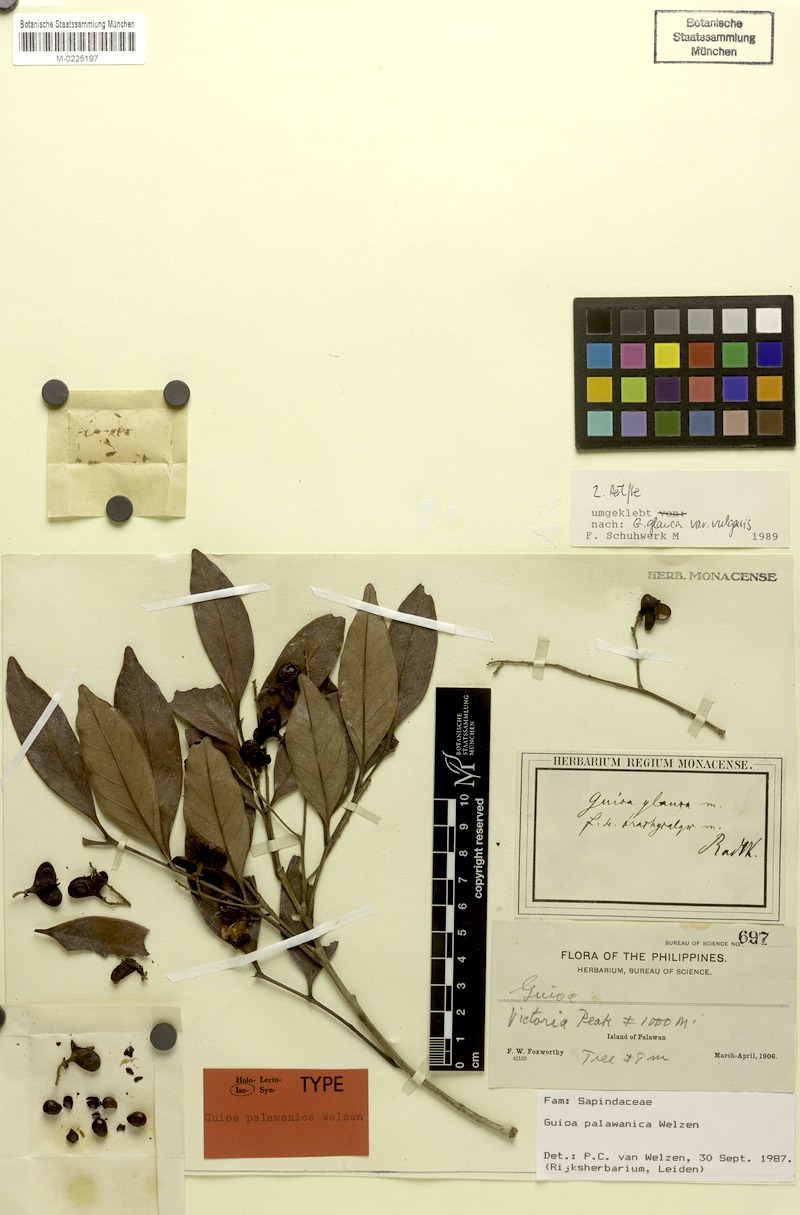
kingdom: Plantae
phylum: Tracheophyta
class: Magnoliopsida
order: Sapindales
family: Sapindaceae
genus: Guioa
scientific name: Guioa palawanica
